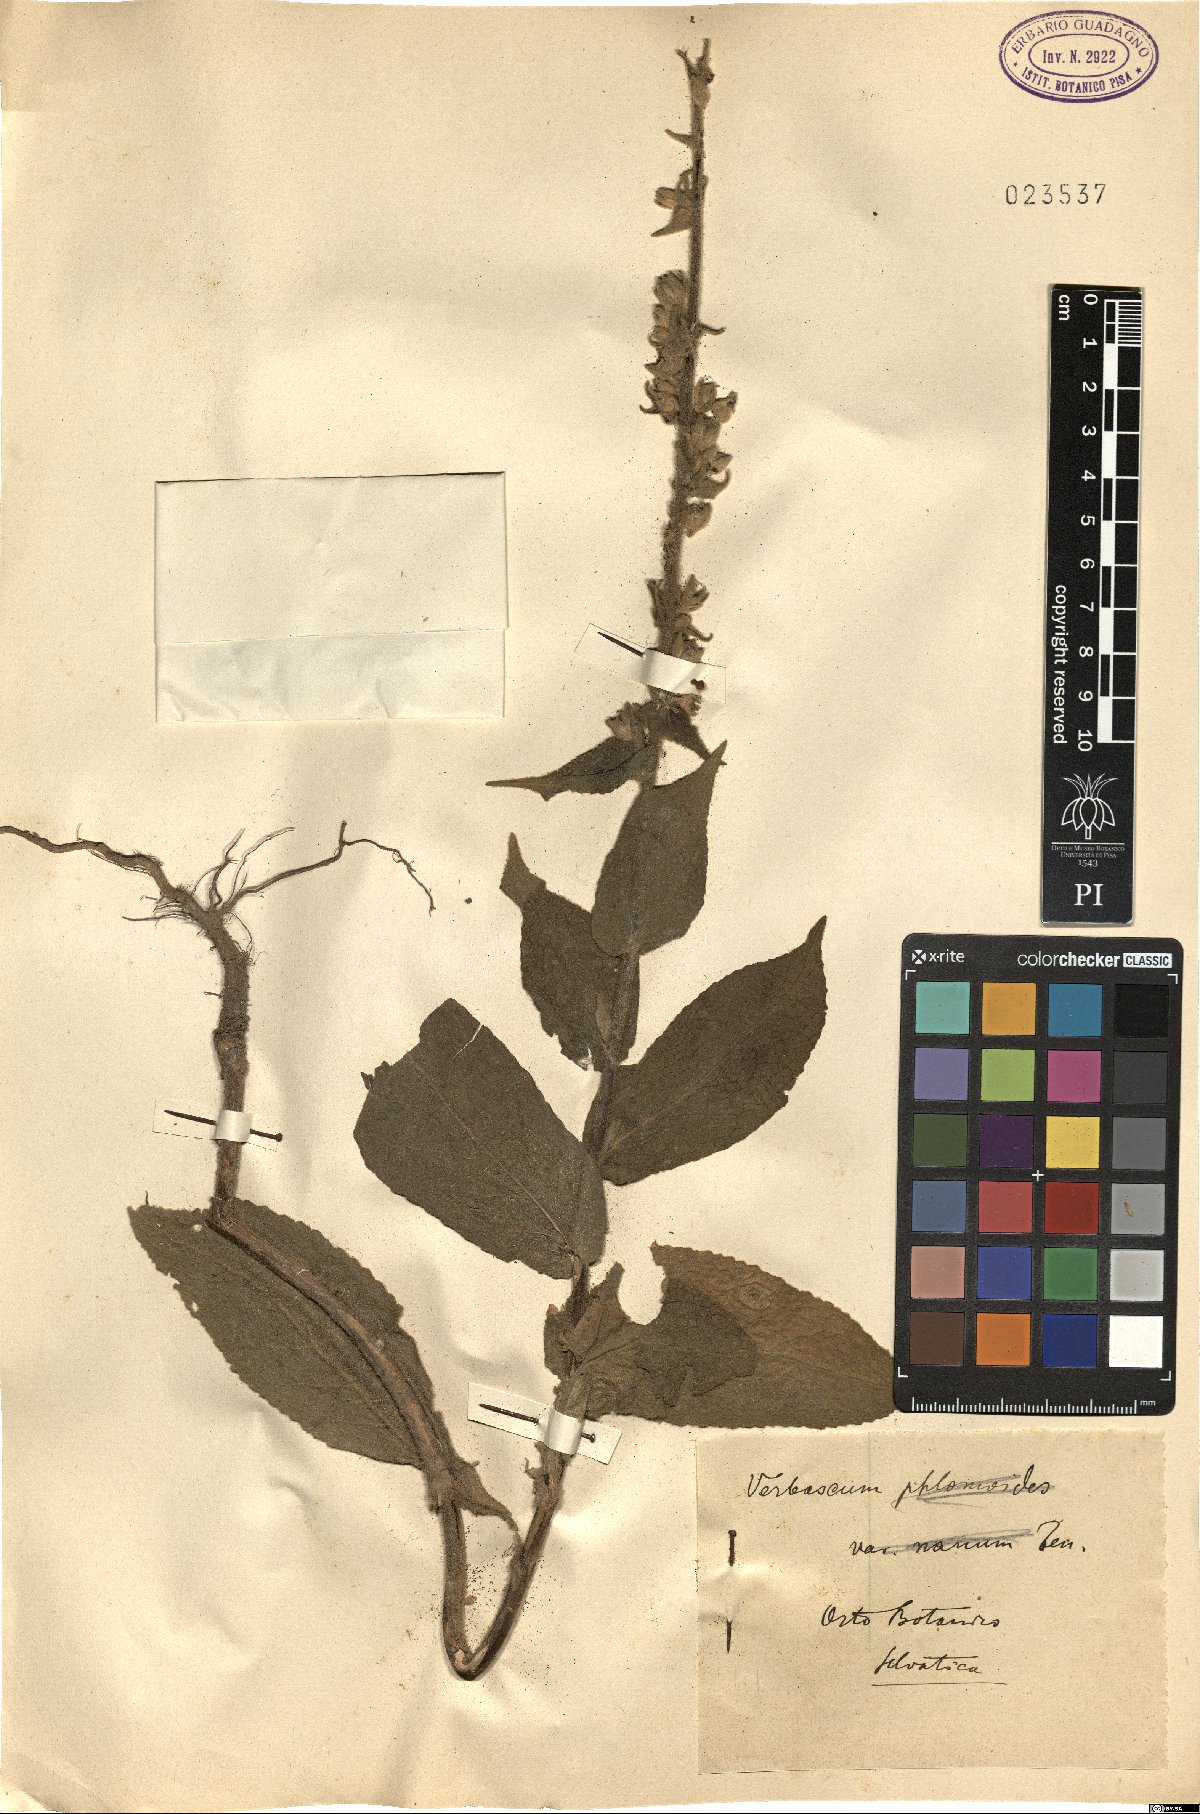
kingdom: Plantae
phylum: Tracheophyta
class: Magnoliopsida
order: Lamiales
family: Scrophulariaceae
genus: Verbascum
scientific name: Verbascum phlomoides
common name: Orange mullein
